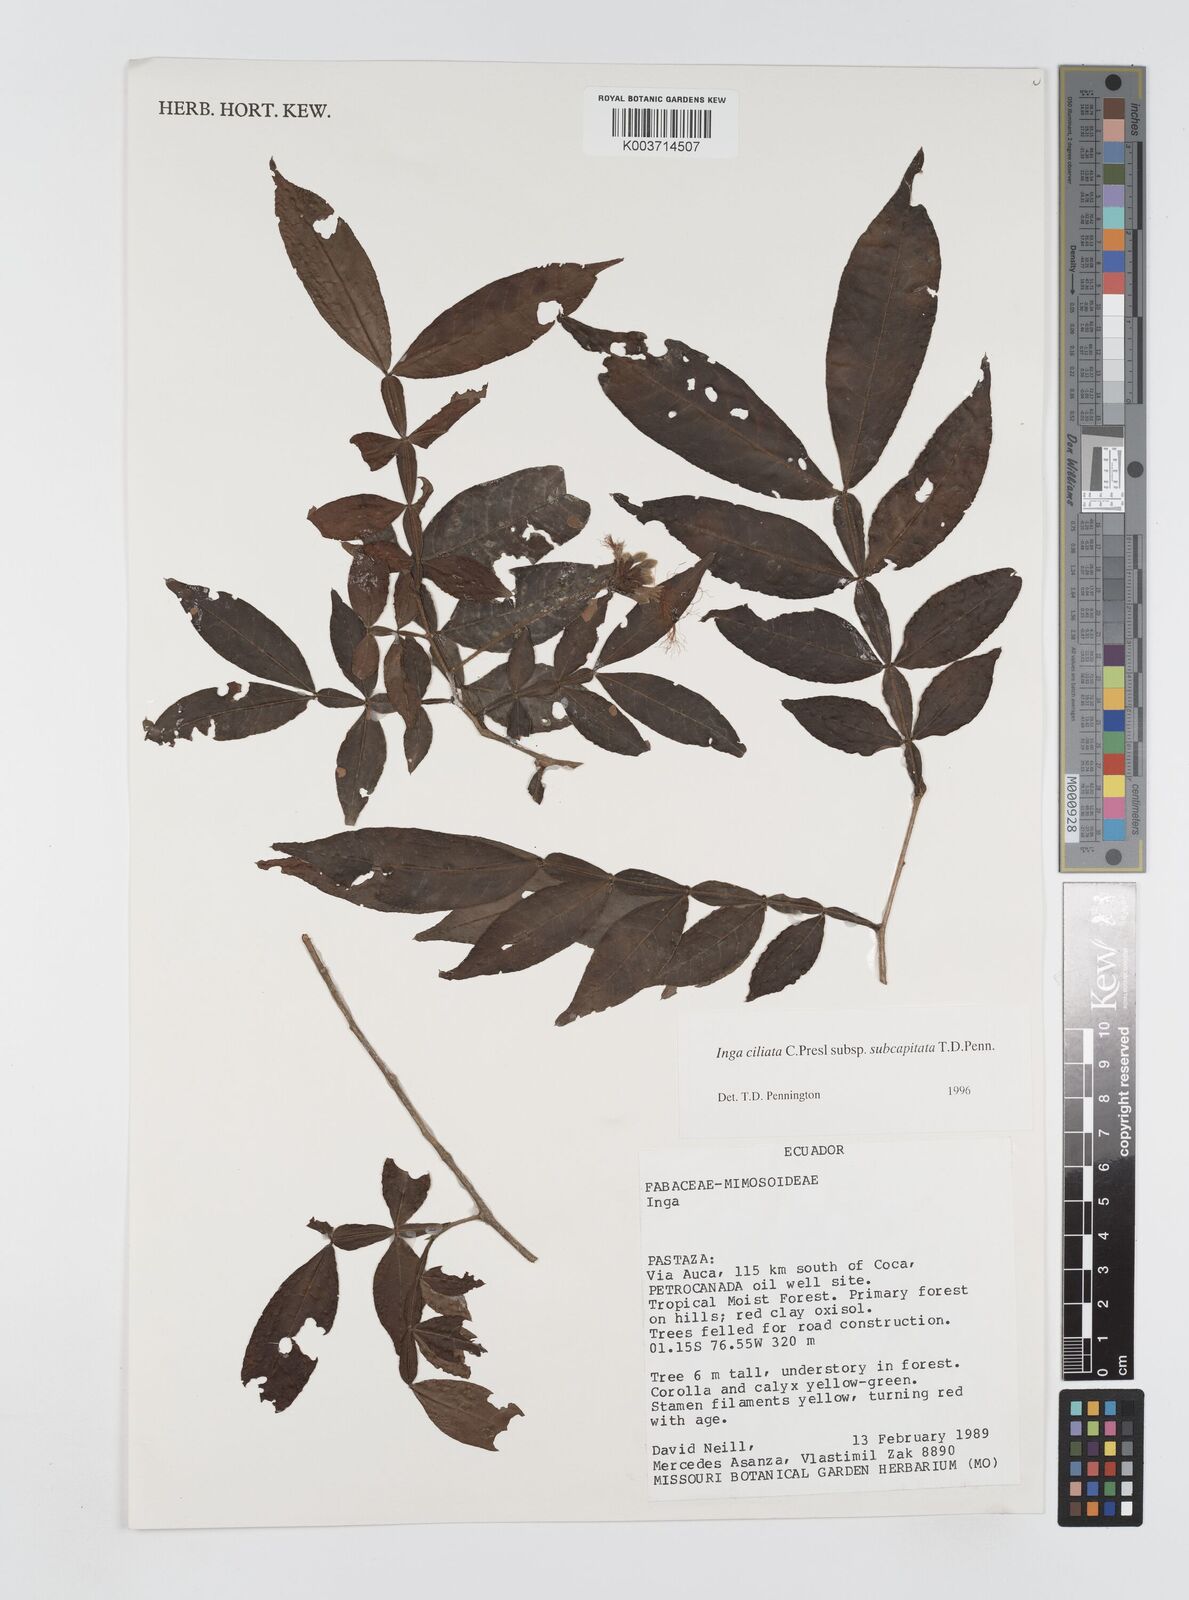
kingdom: Plantae
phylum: Tracheophyta
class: Magnoliopsida
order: Fabales
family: Fabaceae
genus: Inga
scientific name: Inga ciliata
